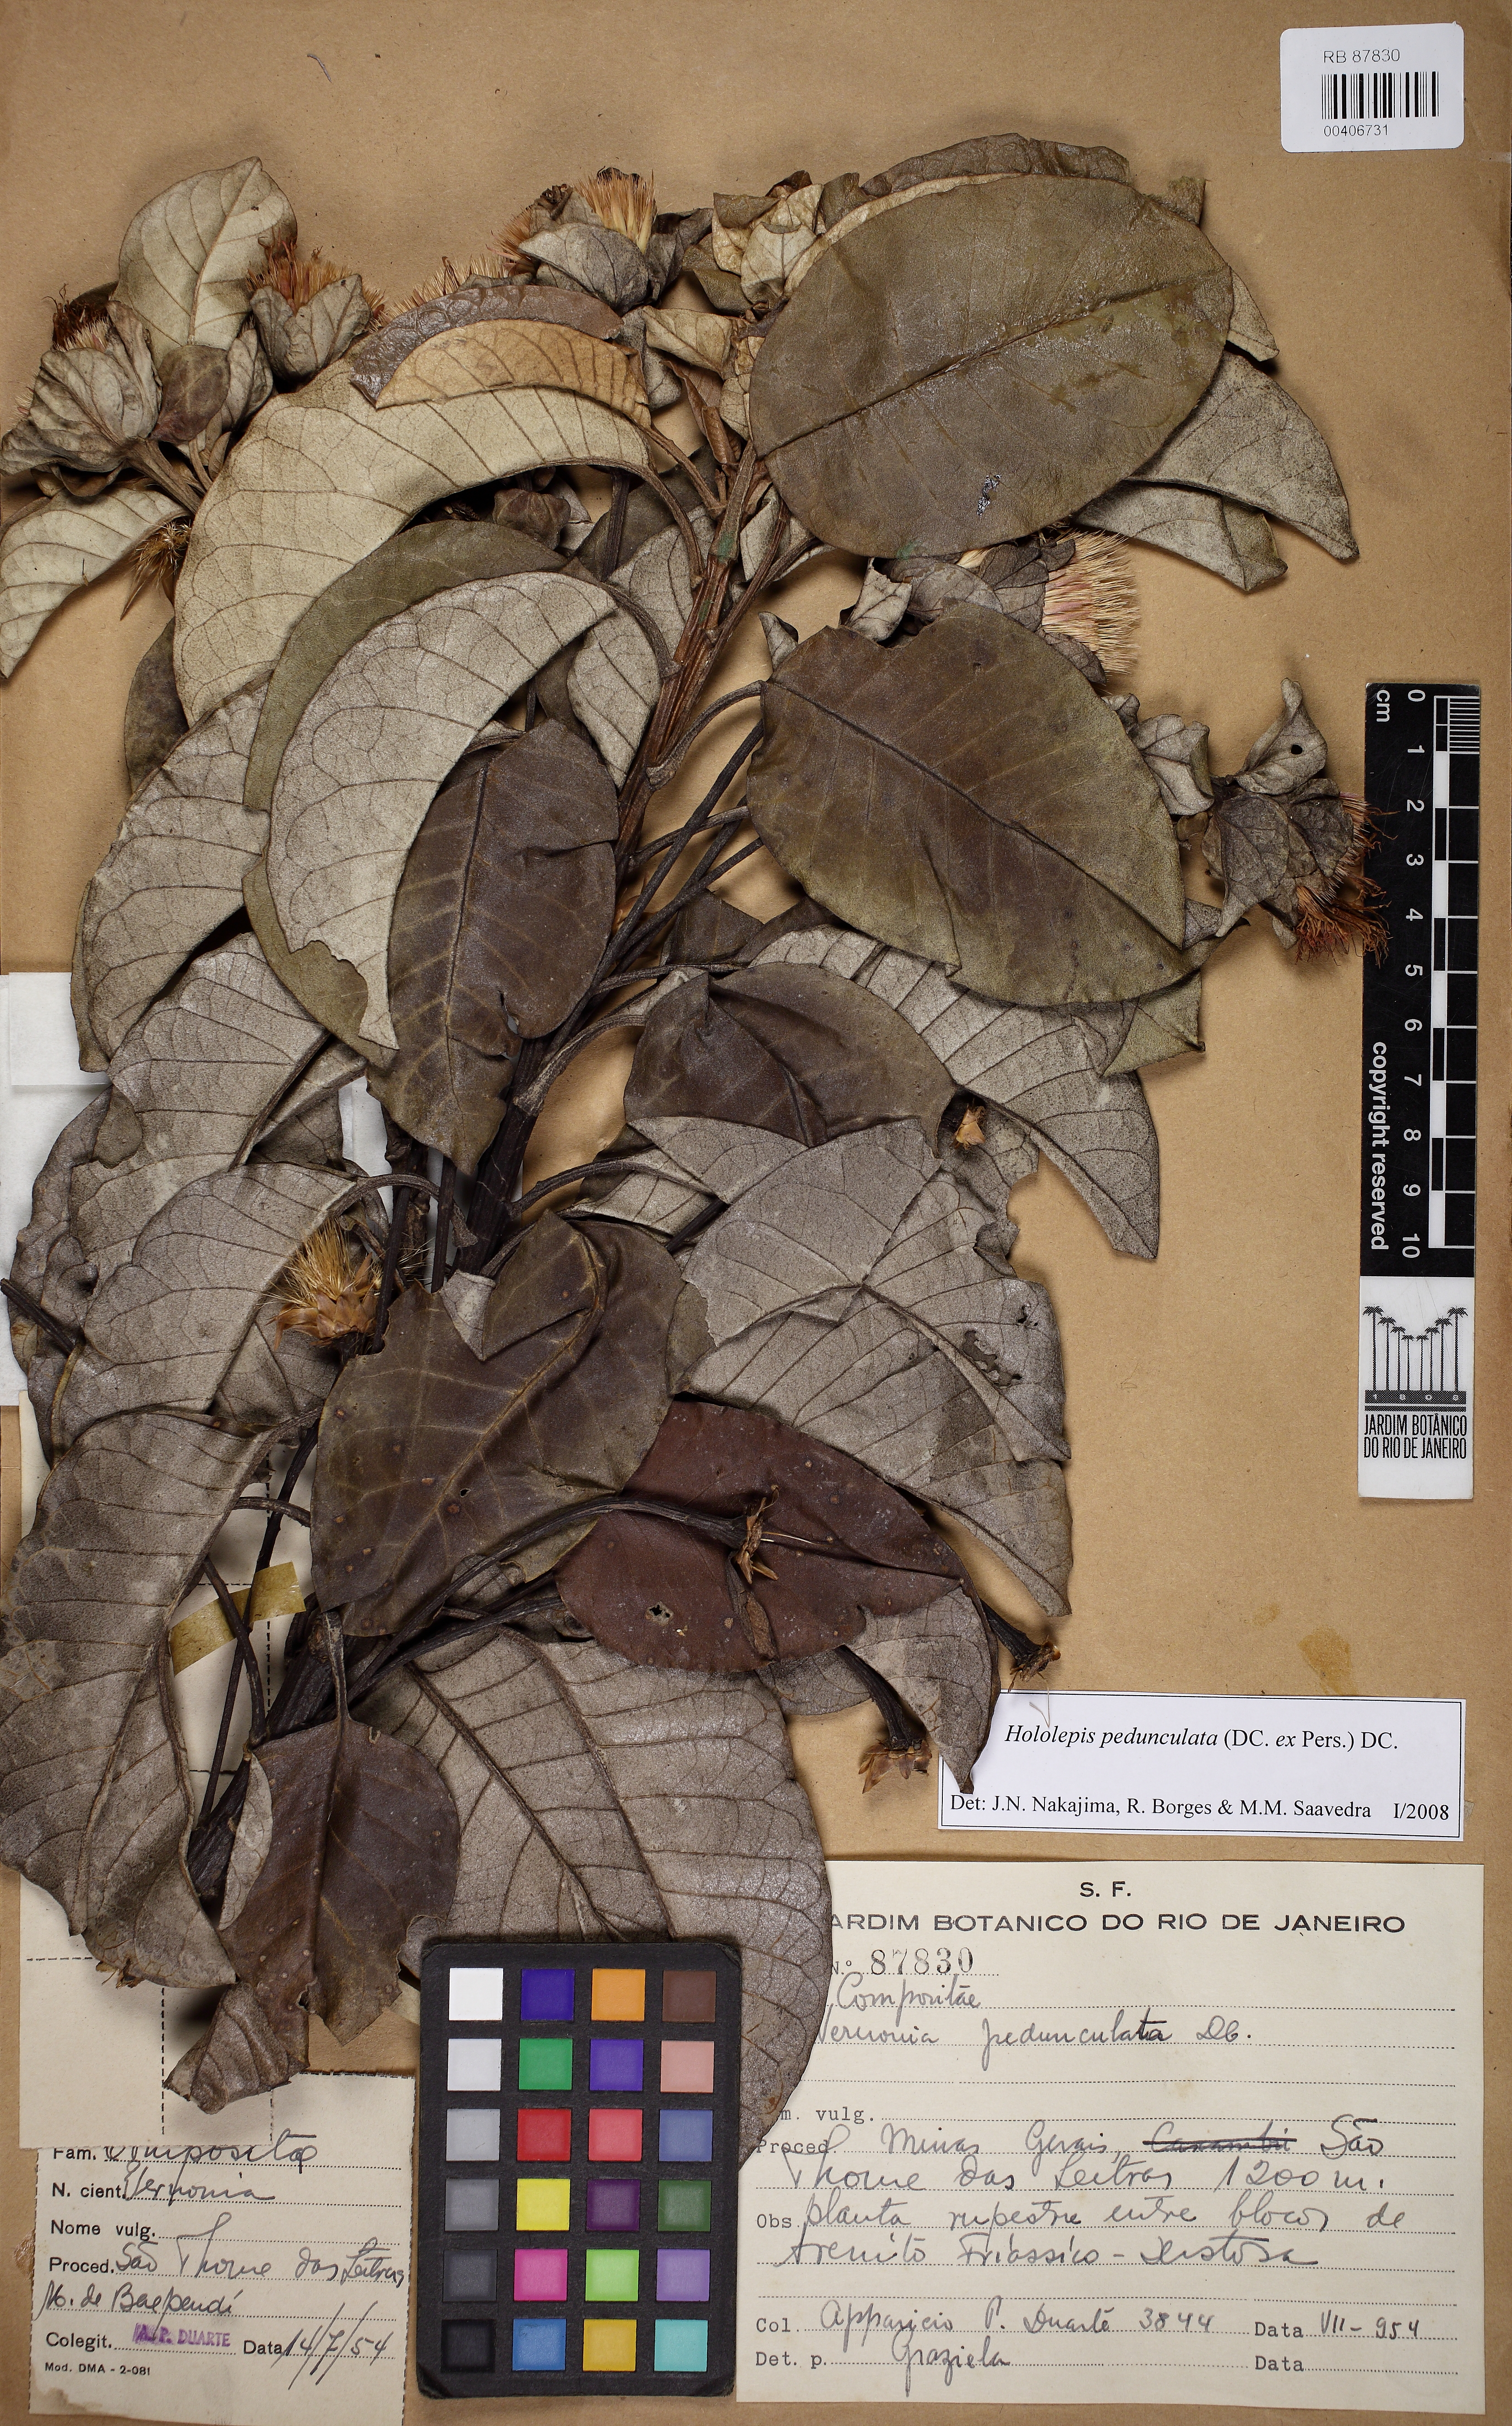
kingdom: Plantae
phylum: Tracheophyta
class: Magnoliopsida
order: Asterales
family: Asteraceae
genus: Hololepis
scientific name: Hololepis pedunculata
